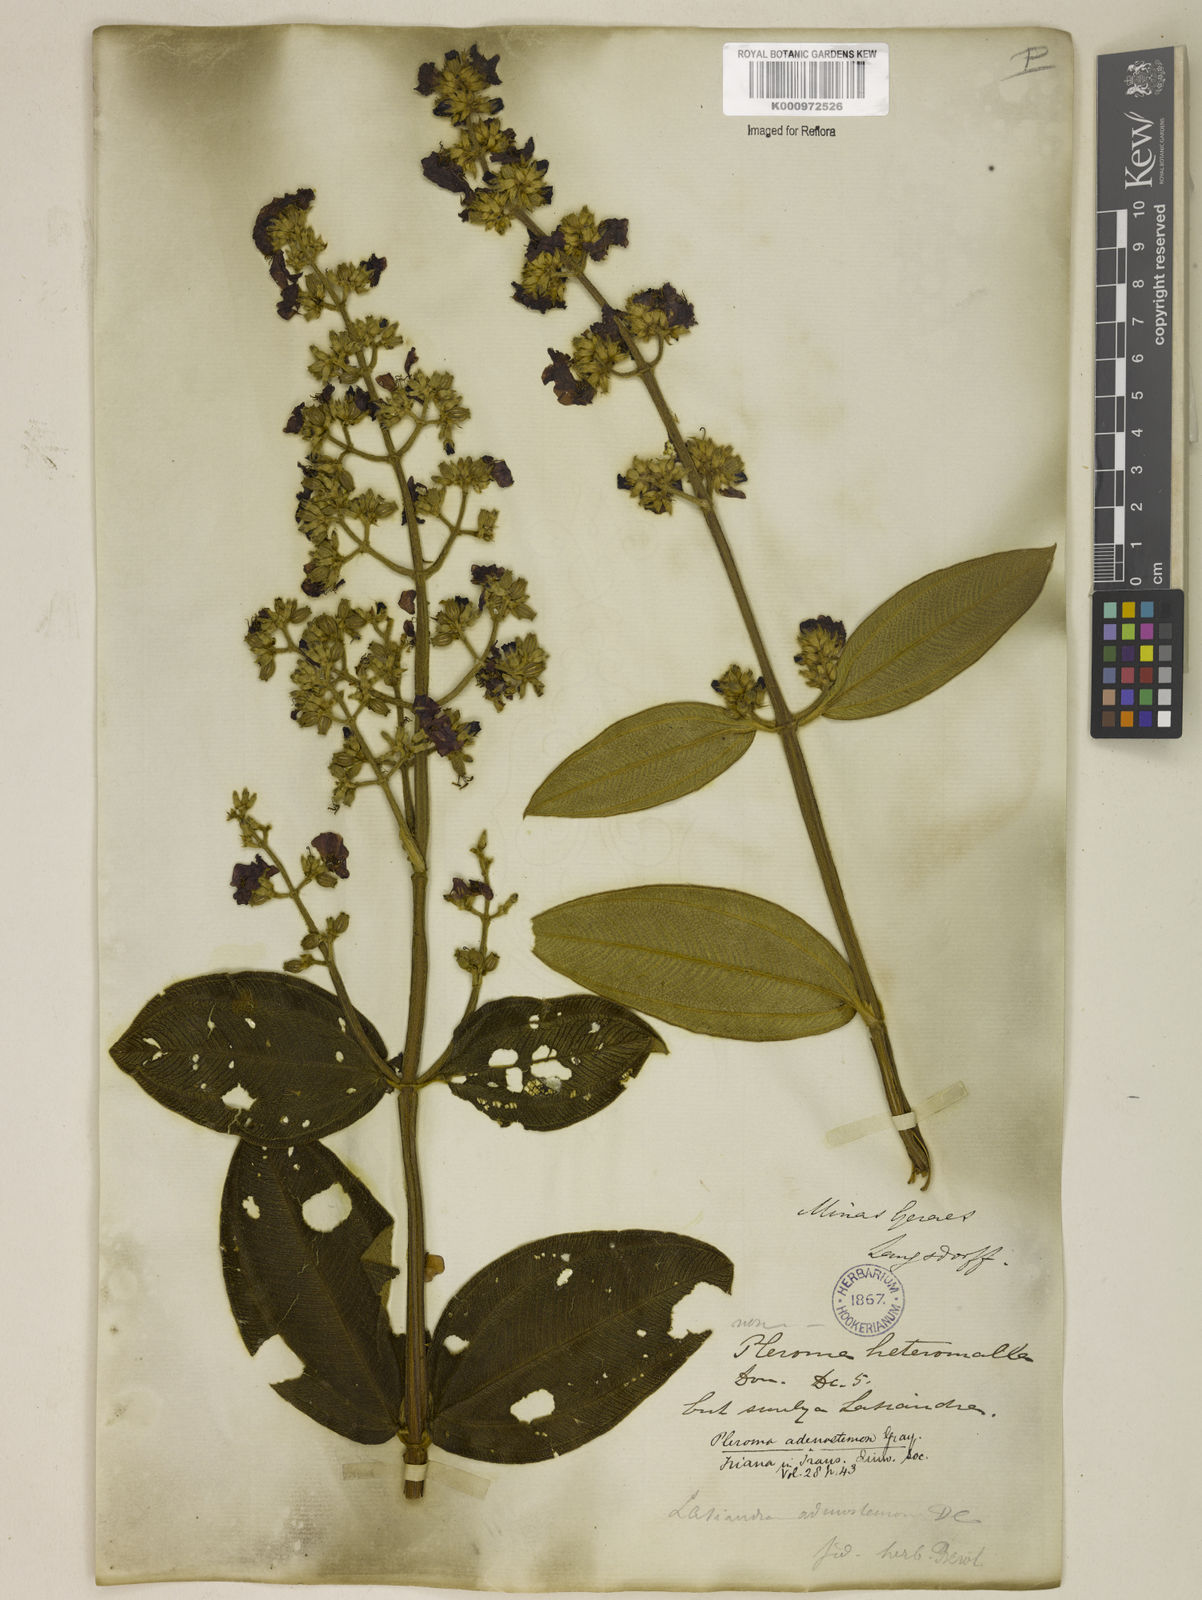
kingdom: Plantae
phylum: Tracheophyta
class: Magnoliopsida
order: Myrtales
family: Melastomataceae
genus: Pleroma
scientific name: Pleroma heteromallum
